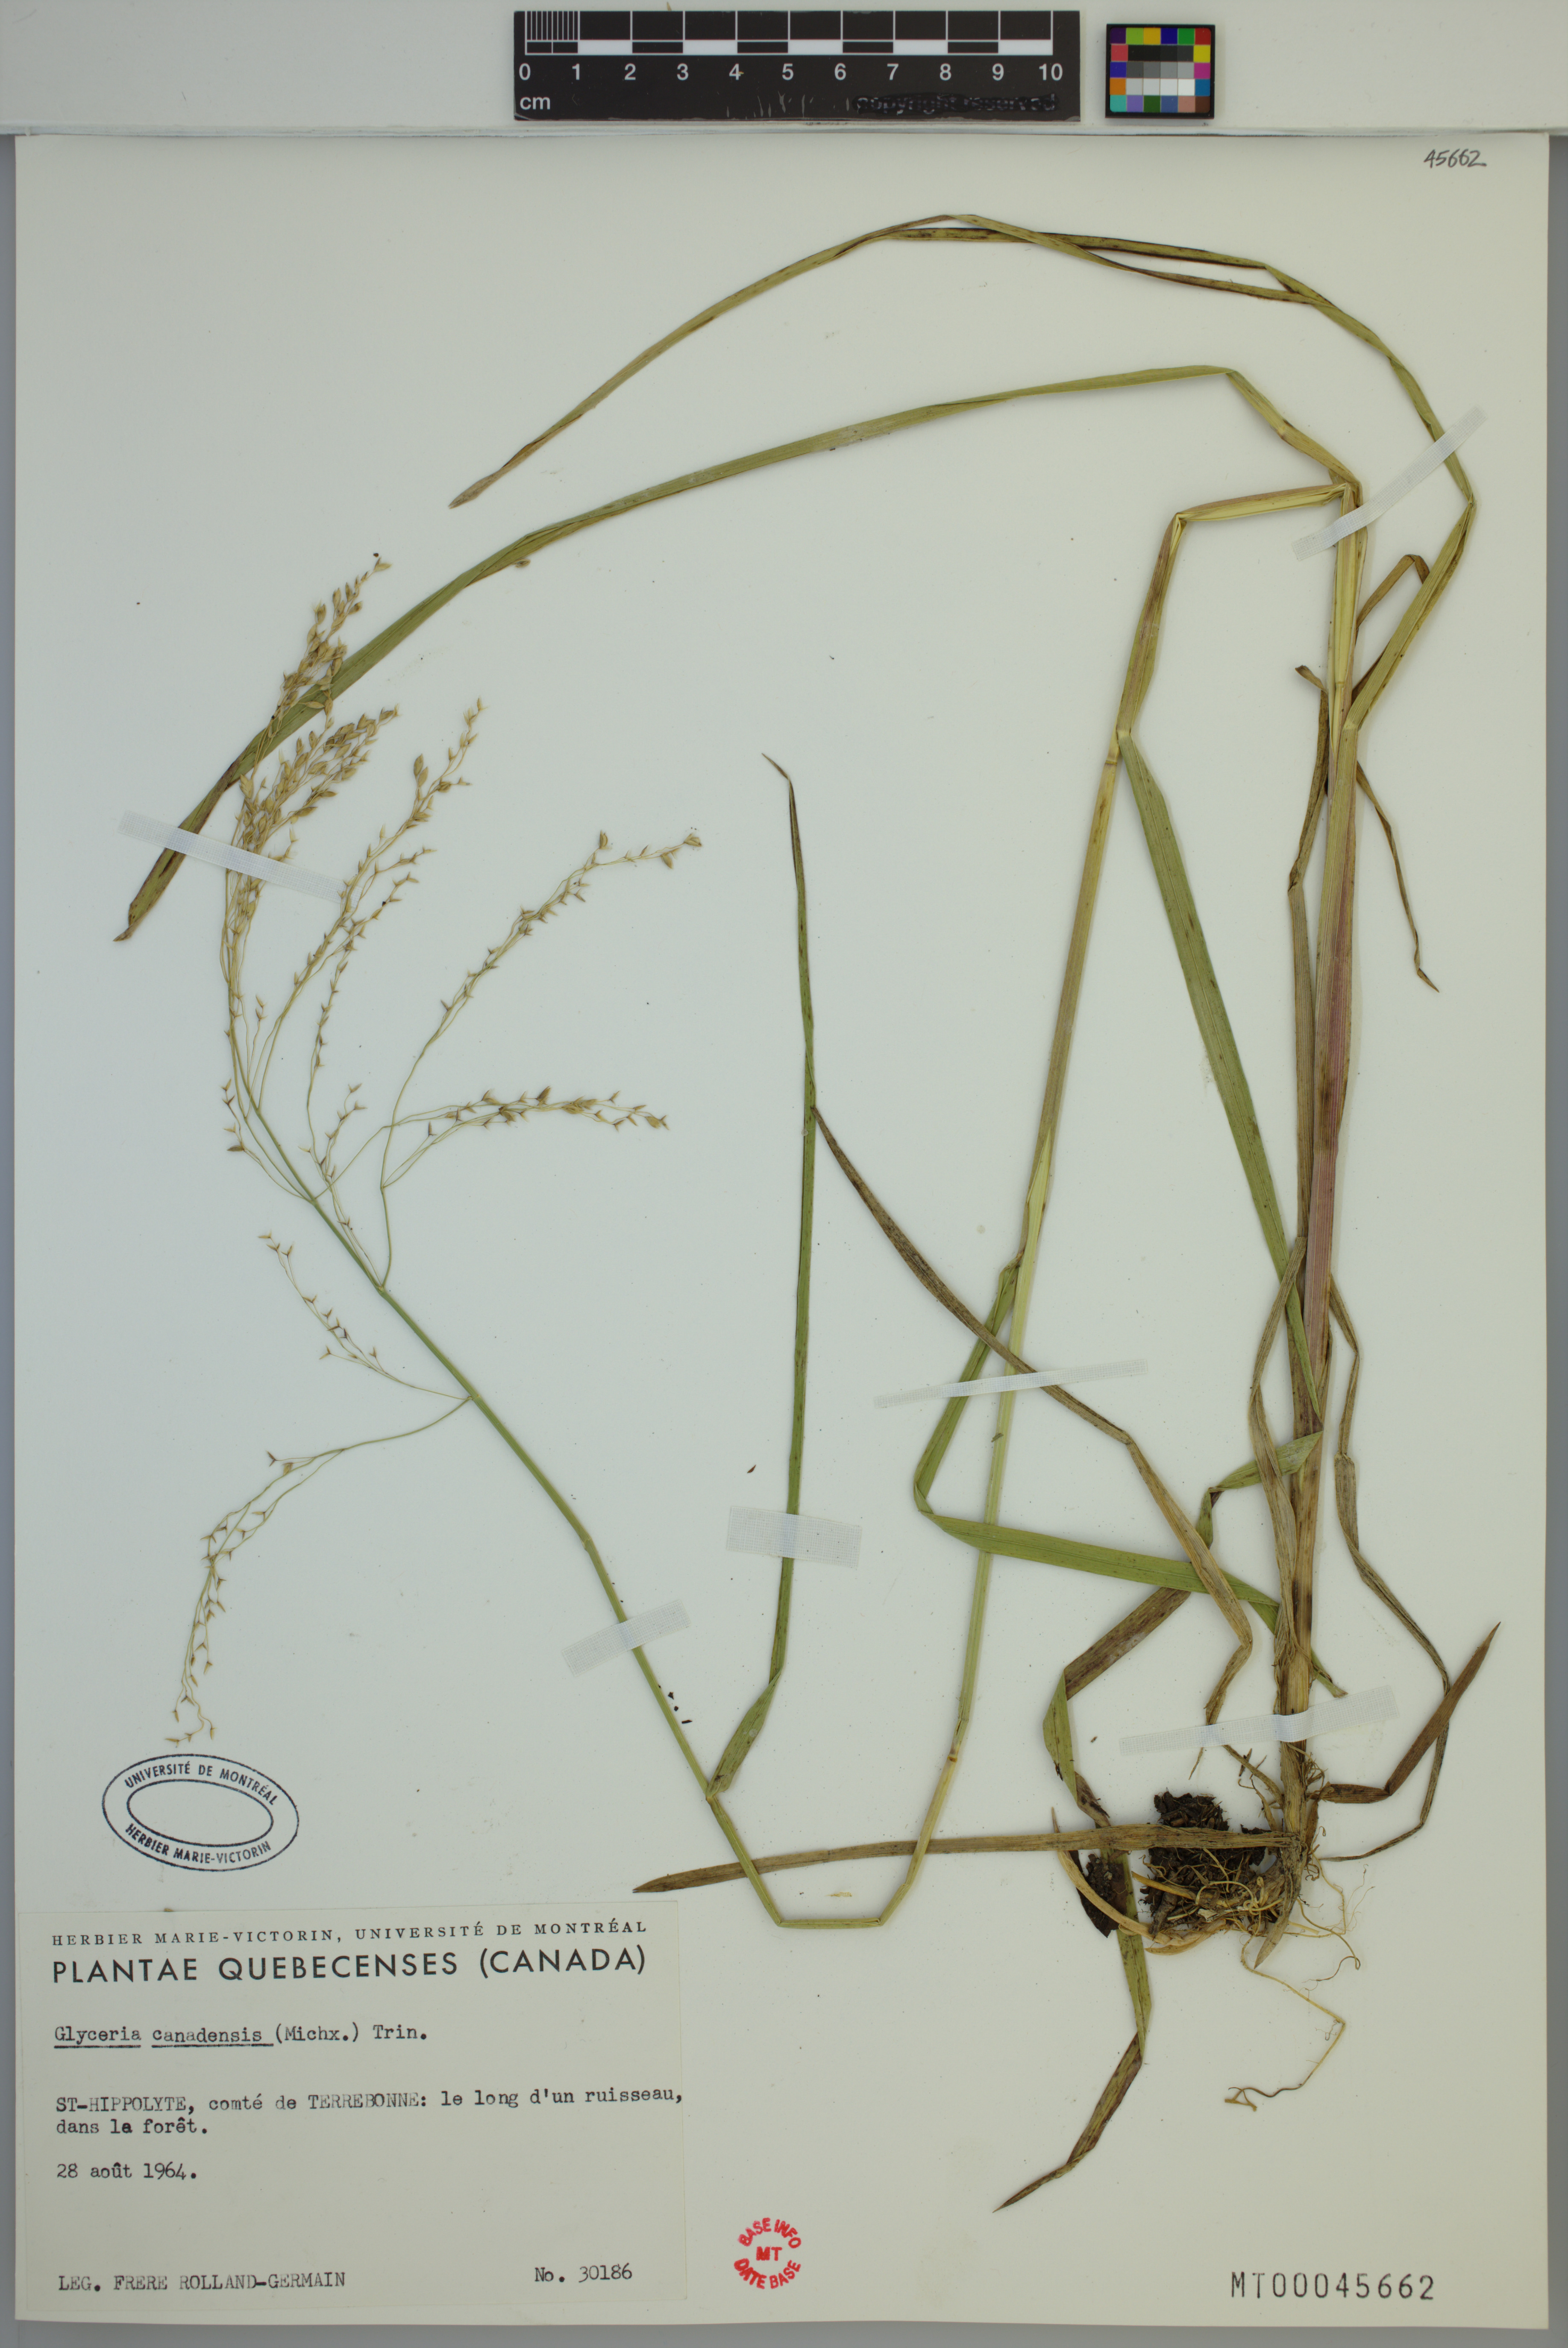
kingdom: Plantae
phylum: Tracheophyta
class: Liliopsida
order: Poales
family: Poaceae
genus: Glyceria
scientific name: Glyceria canadensis
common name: Canada mannagrass
